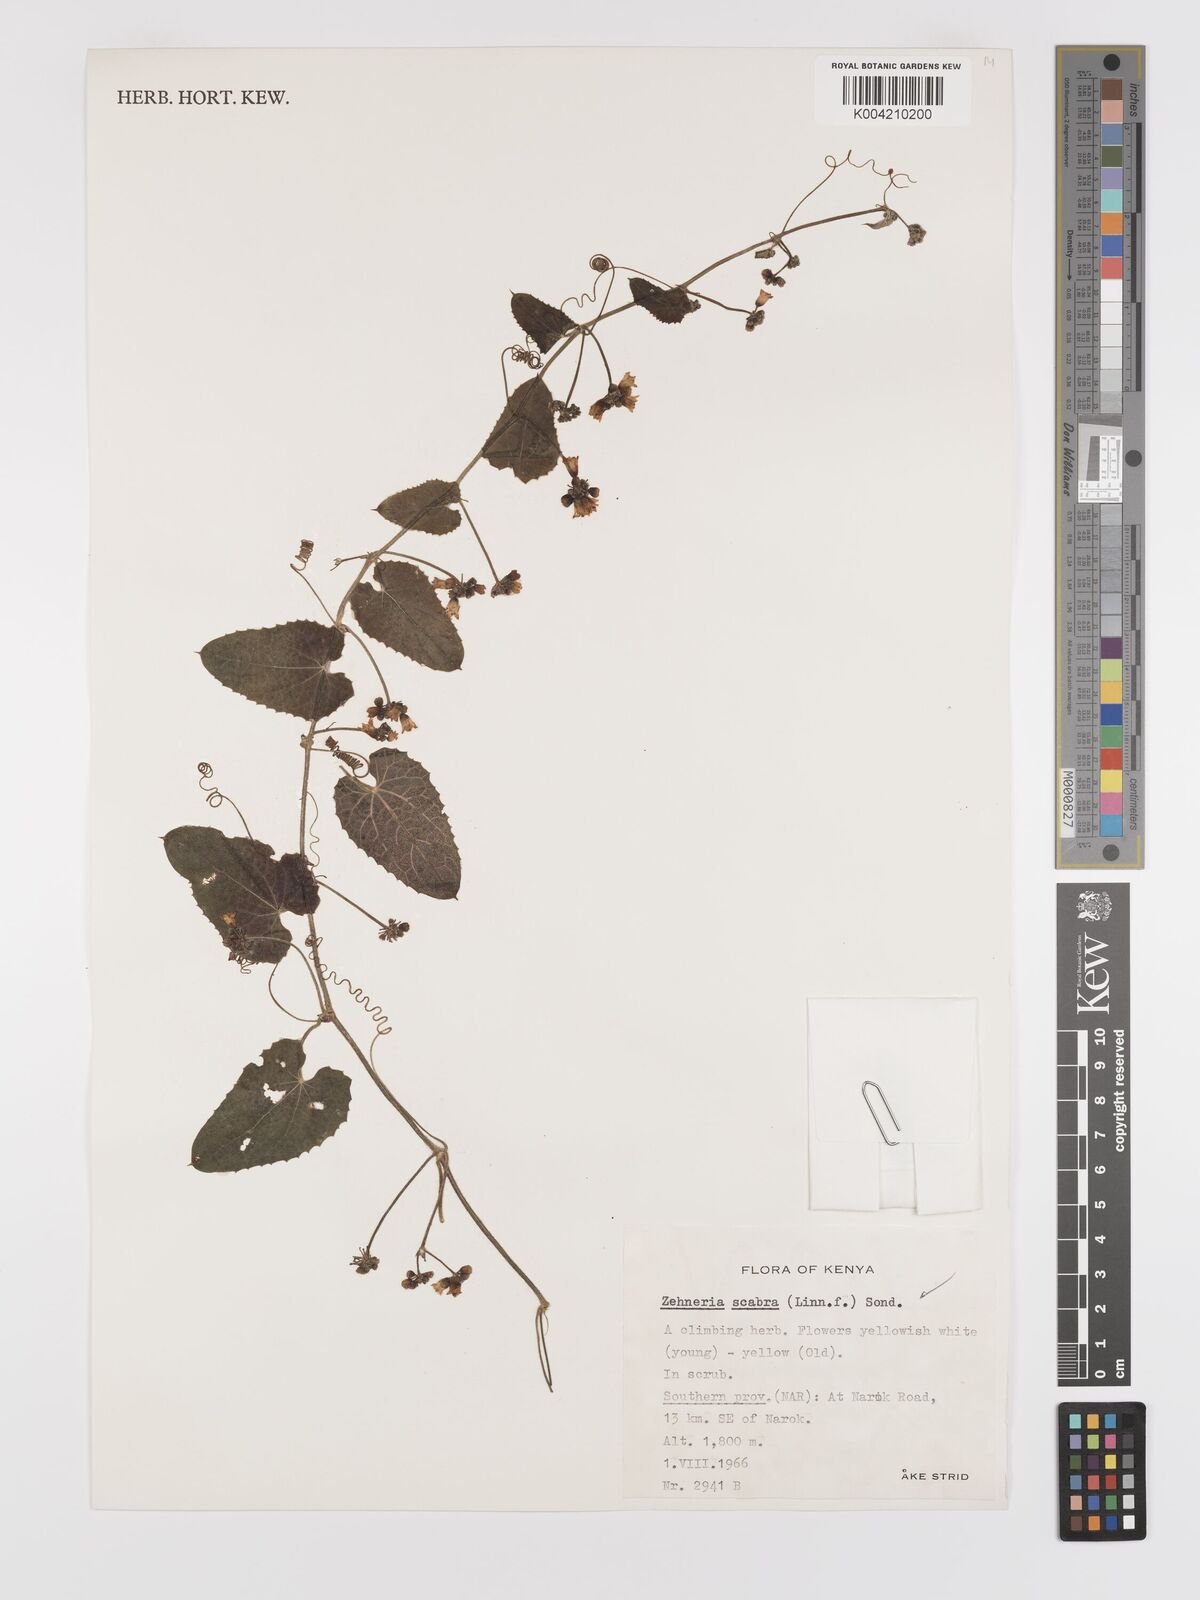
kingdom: Plantae
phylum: Tracheophyta
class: Magnoliopsida
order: Cucurbitales
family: Cucurbitaceae
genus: Zehneria
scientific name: Zehneria scabra
